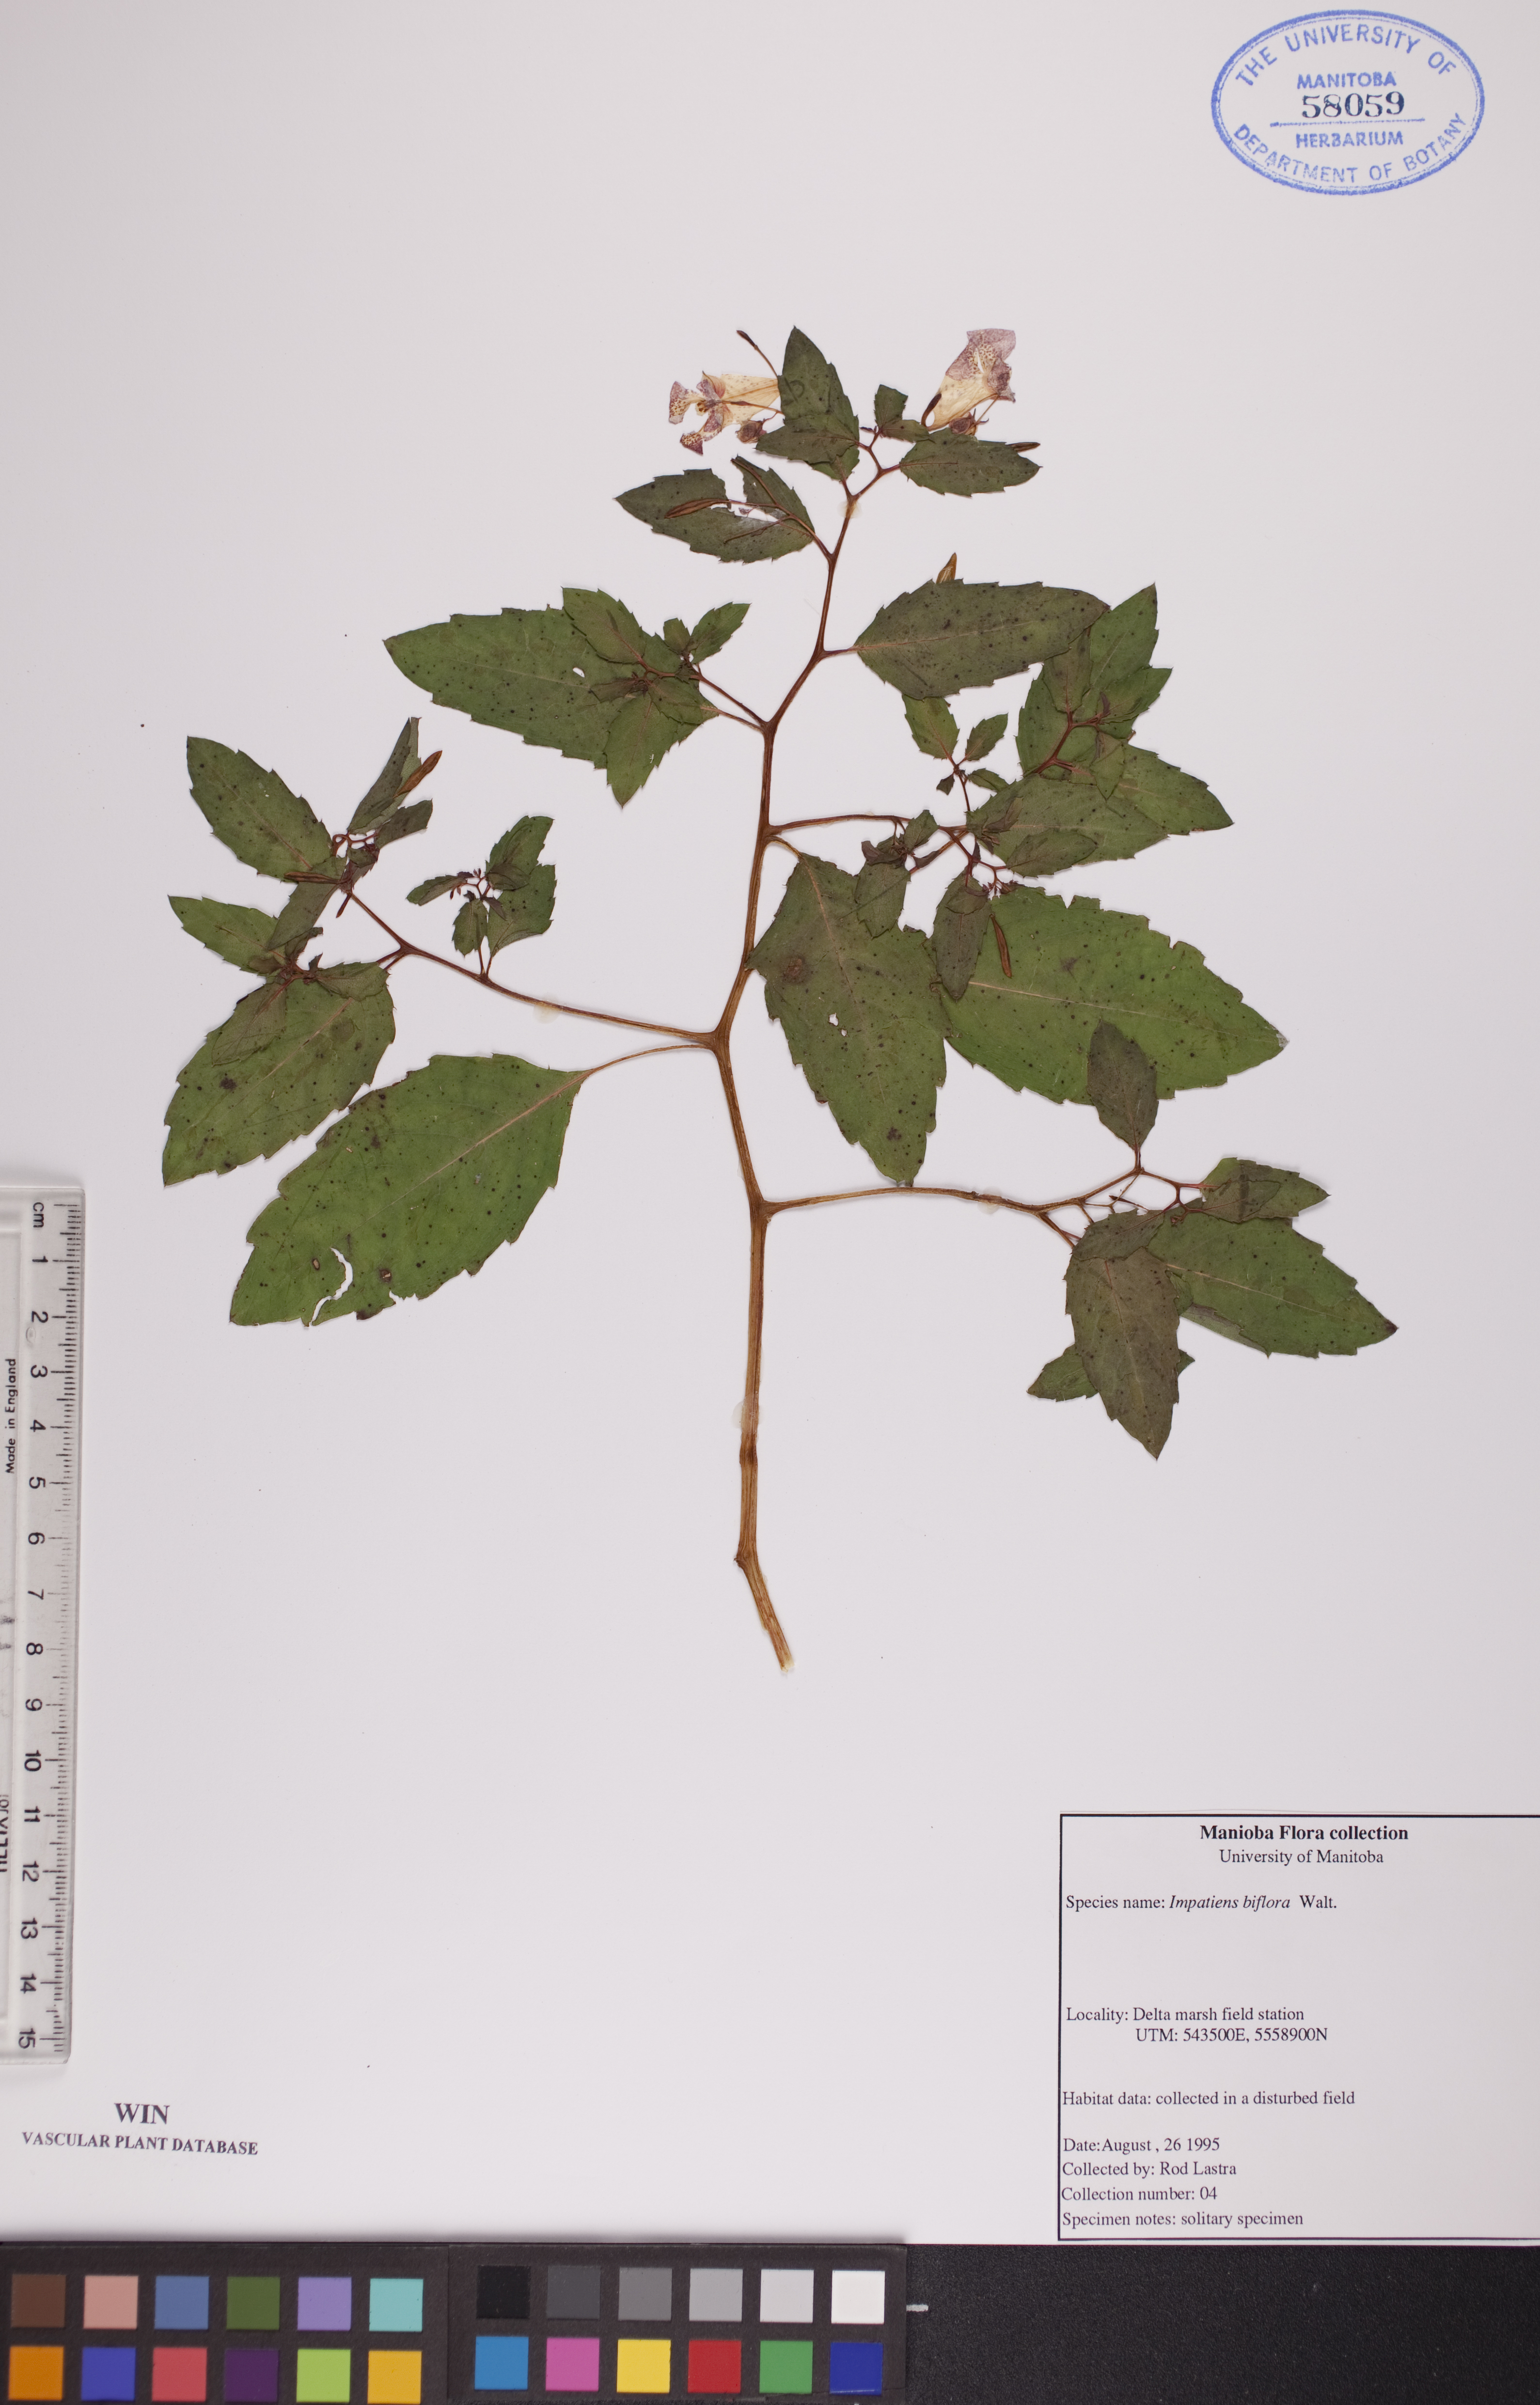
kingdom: Plantae
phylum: Tracheophyta
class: Magnoliopsida
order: Ericales
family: Balsaminaceae
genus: Impatiens
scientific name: Impatiens capensis
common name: Orange balsam
